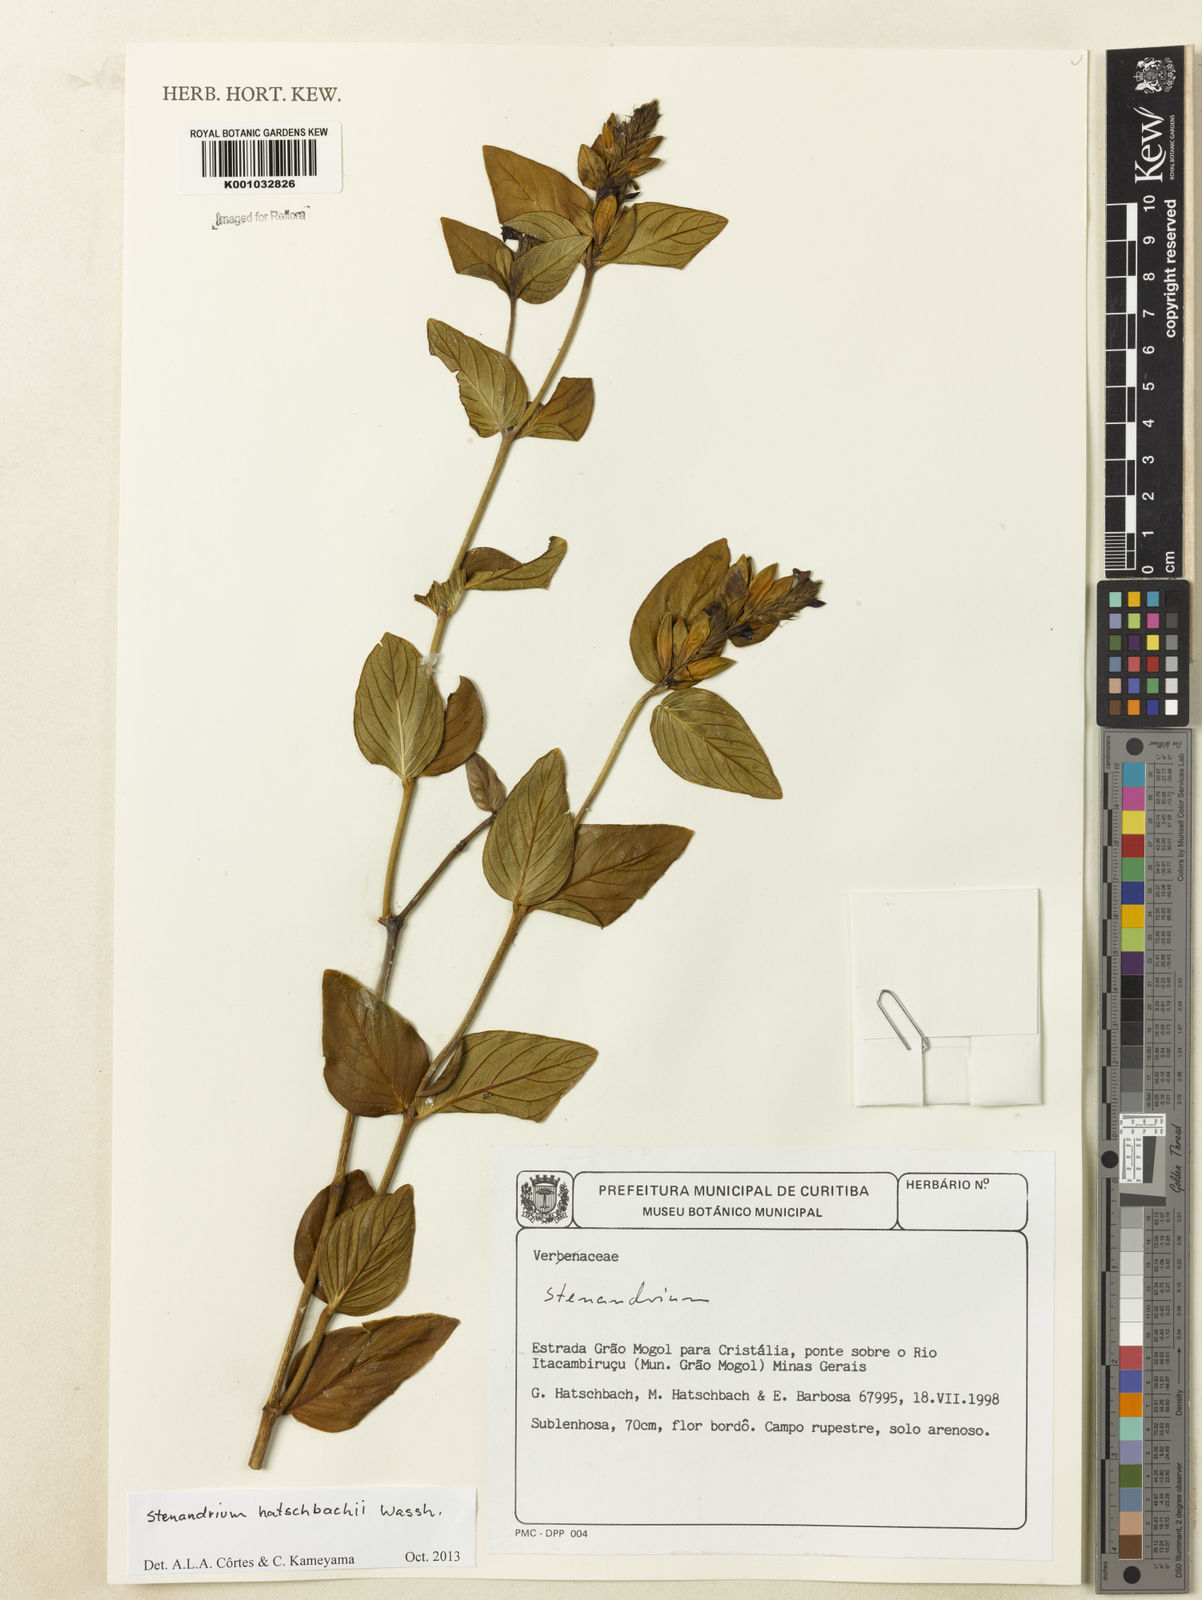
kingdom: Plantae
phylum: Tracheophyta
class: Magnoliopsida
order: Lamiales
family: Acanthaceae
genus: Stenandrium
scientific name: Stenandrium hatschbachii
